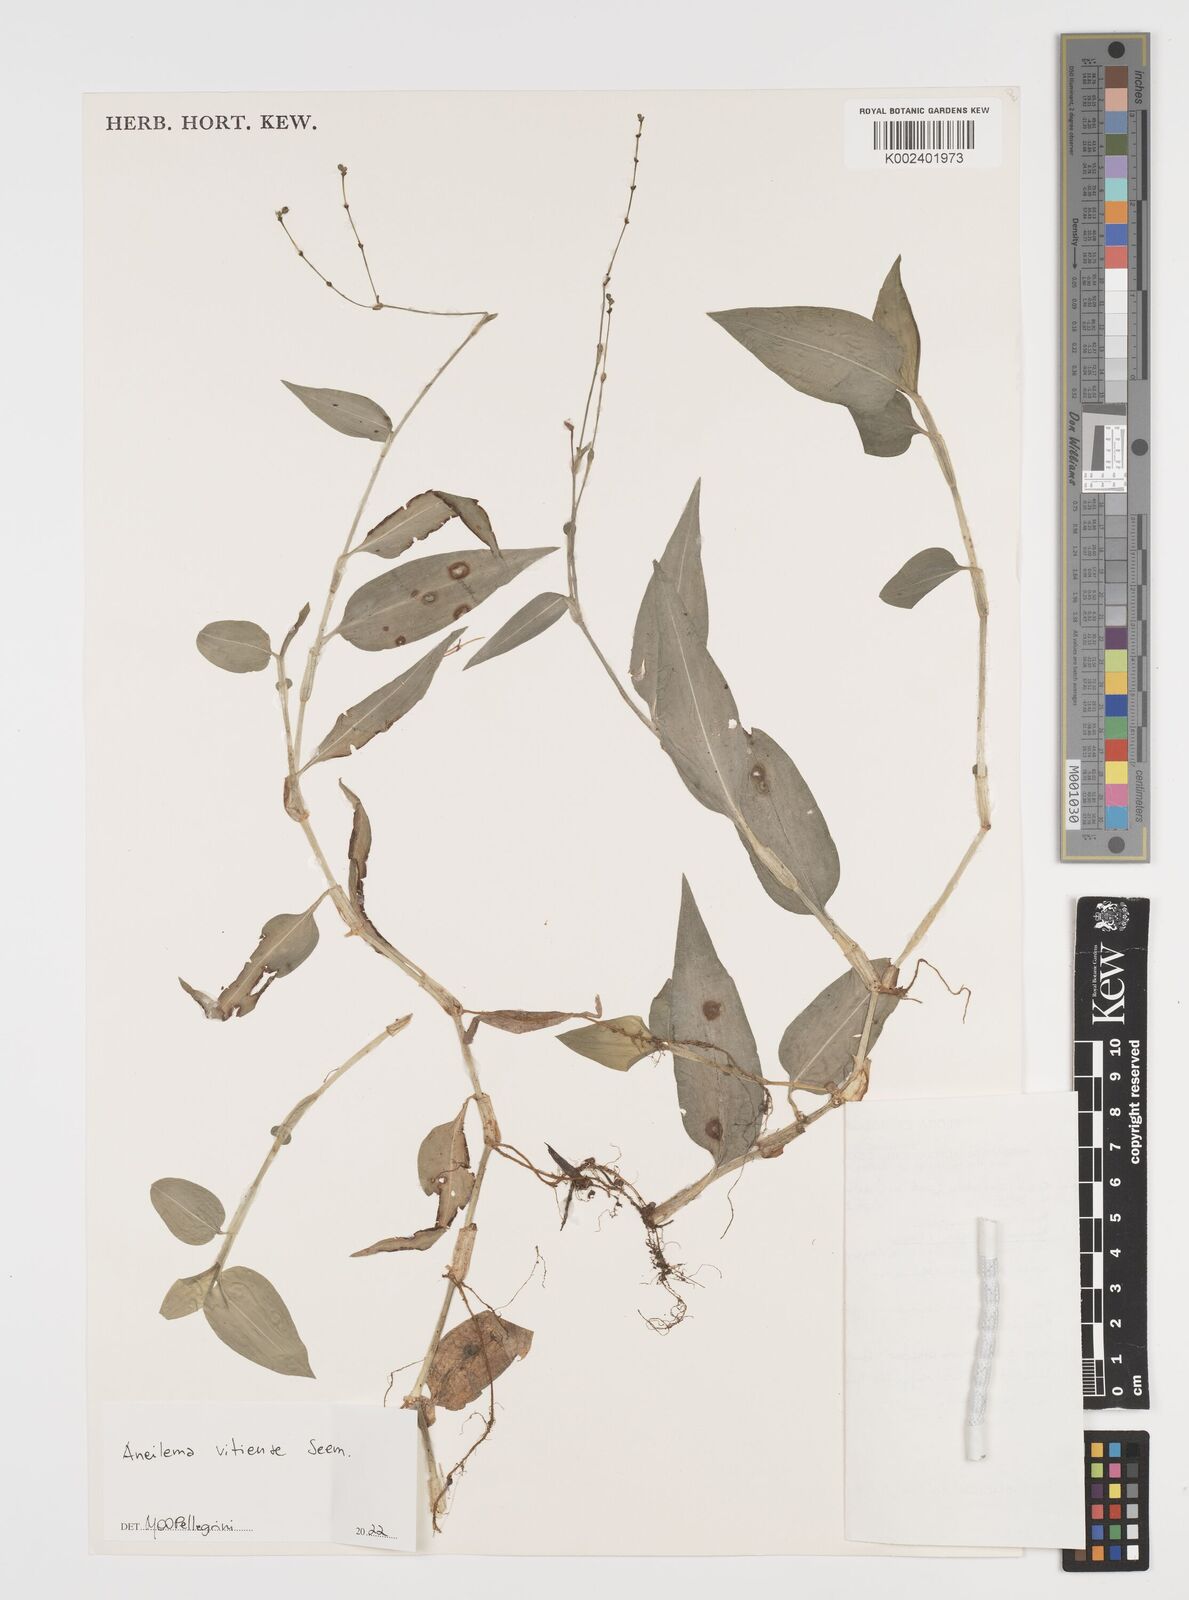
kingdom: Plantae
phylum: Tracheophyta
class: Liliopsida
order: Commelinales
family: Commelinaceae
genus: Rhopalephora
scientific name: Rhopalephora vitiensis
